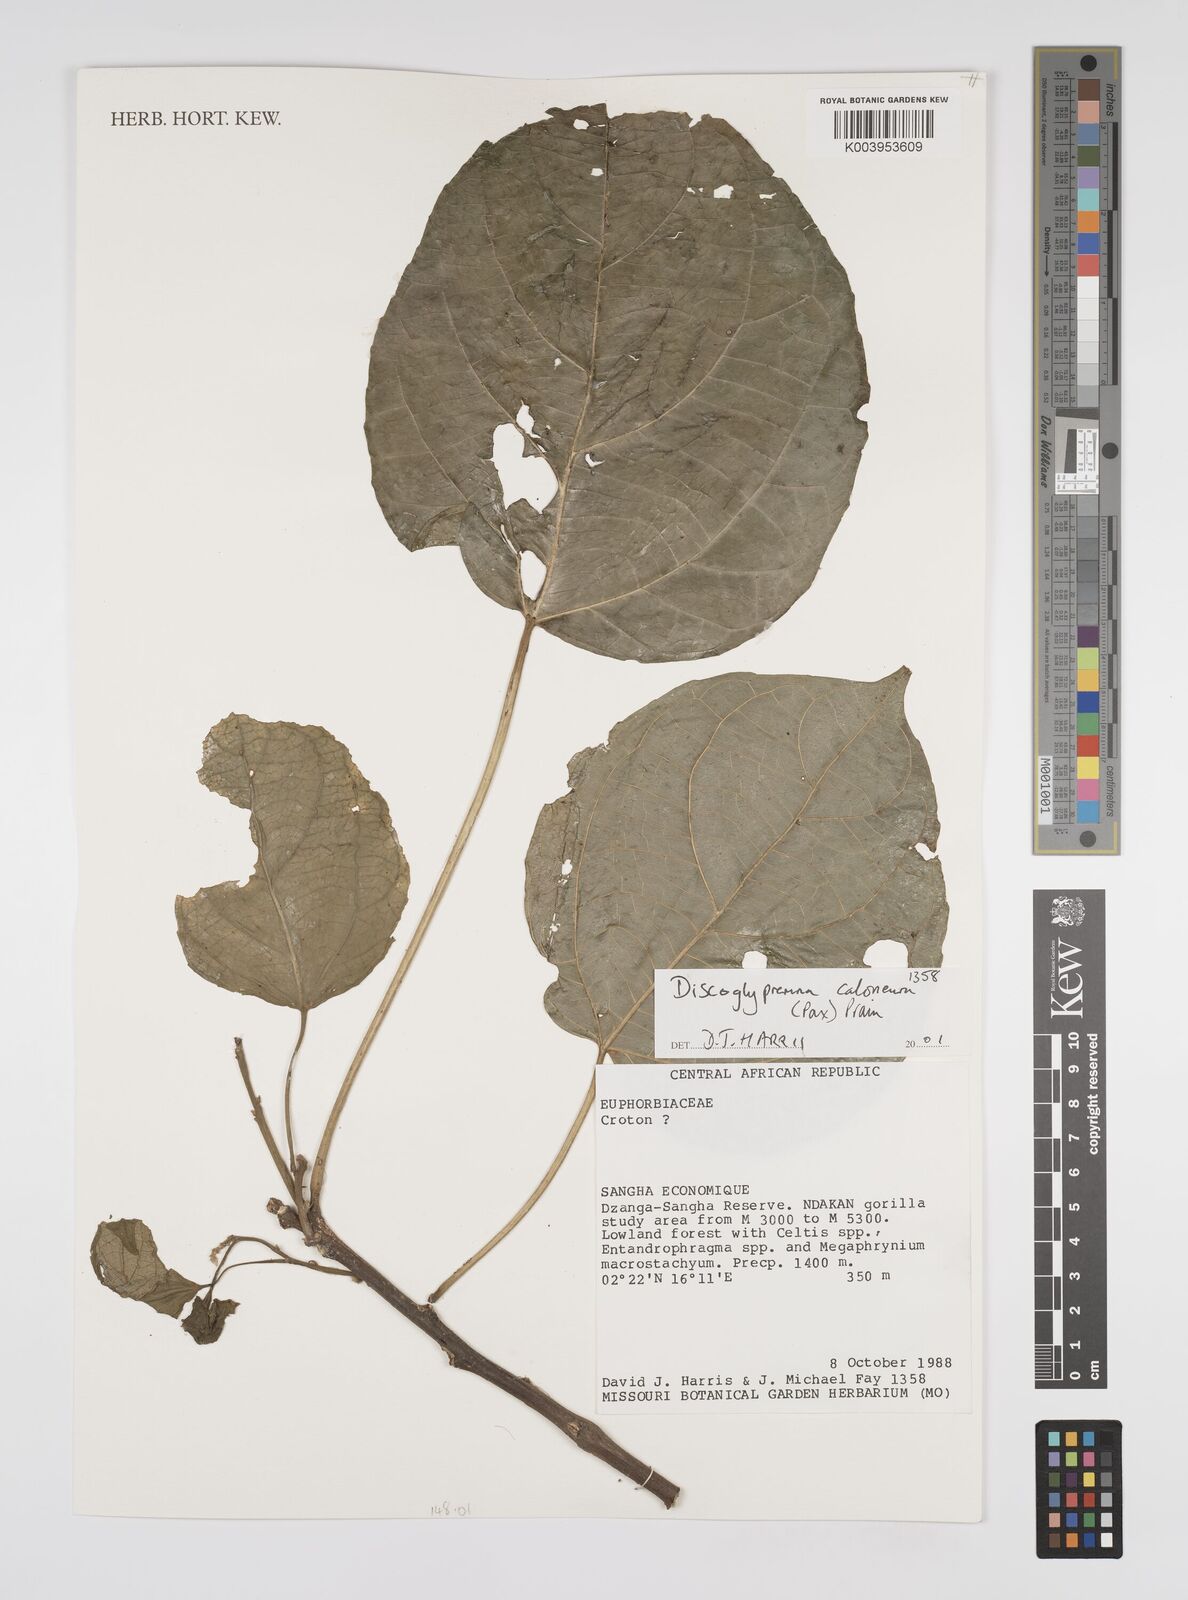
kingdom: Plantae
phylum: Tracheophyta
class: Magnoliopsida
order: Malpighiales
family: Euphorbiaceae
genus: Discoglypremna
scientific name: Discoglypremna caloneura
